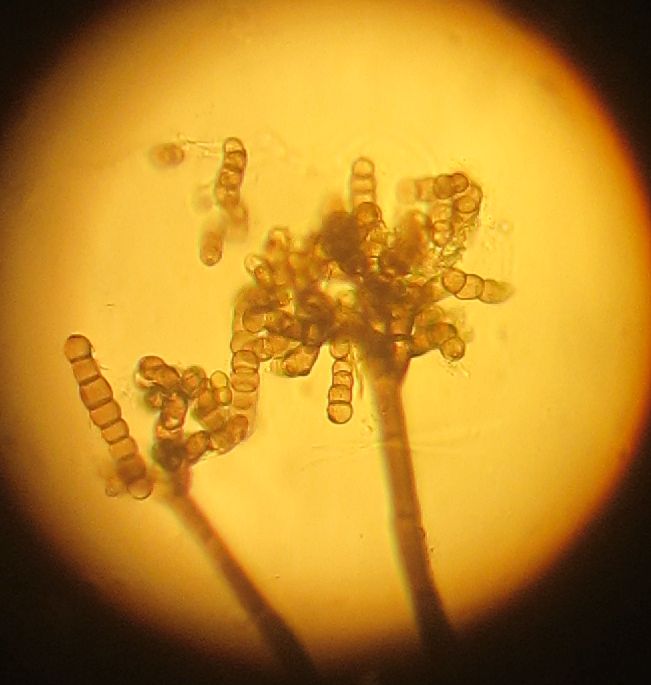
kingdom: Fungi
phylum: Ascomycota
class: Dothideomycetes
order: Pleosporales
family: Torulaceae
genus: Dendryphion
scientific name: Dendryphion comosum
